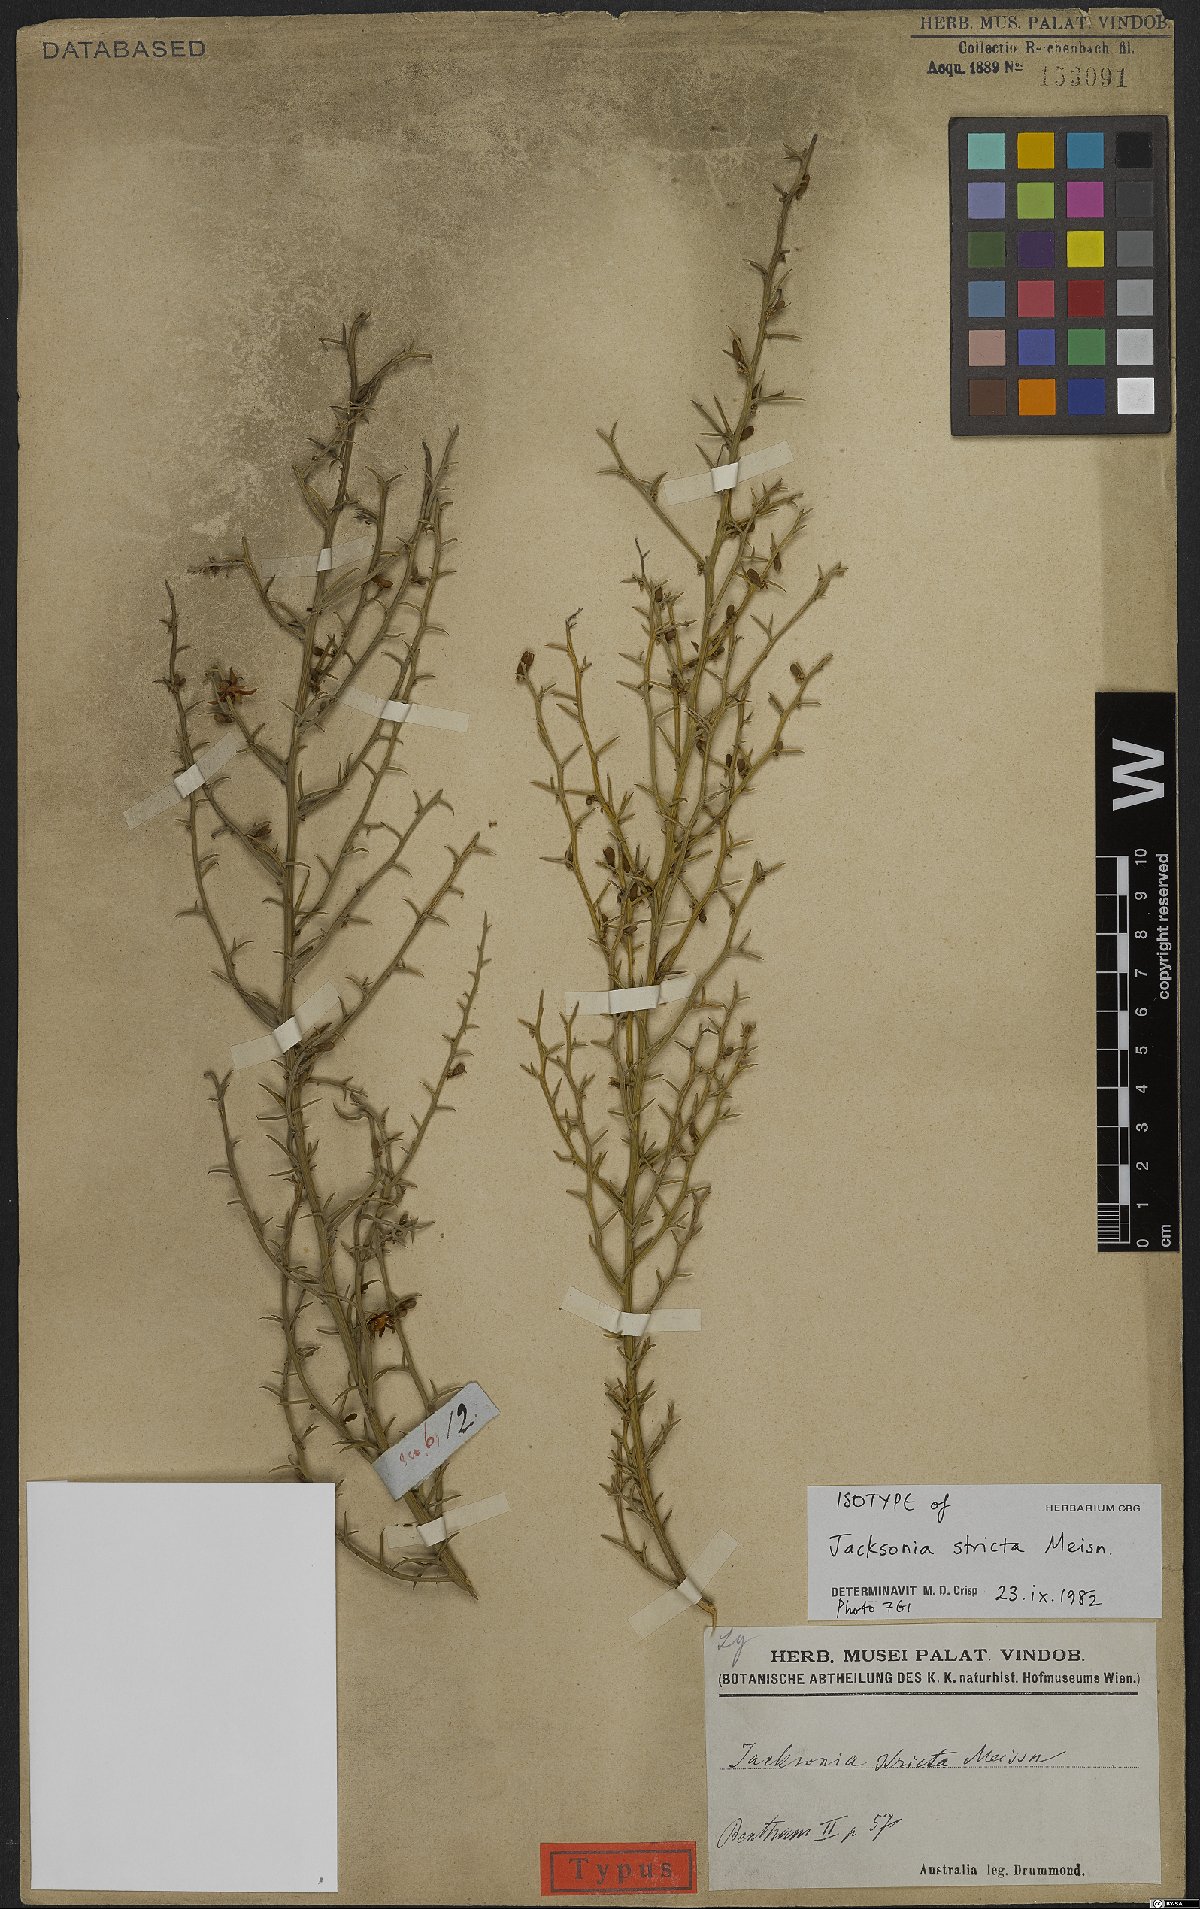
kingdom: Plantae
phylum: Tracheophyta
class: Magnoliopsida
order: Fabales
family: Fabaceae
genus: Jacksonia
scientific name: Jacksonia fasciculata
